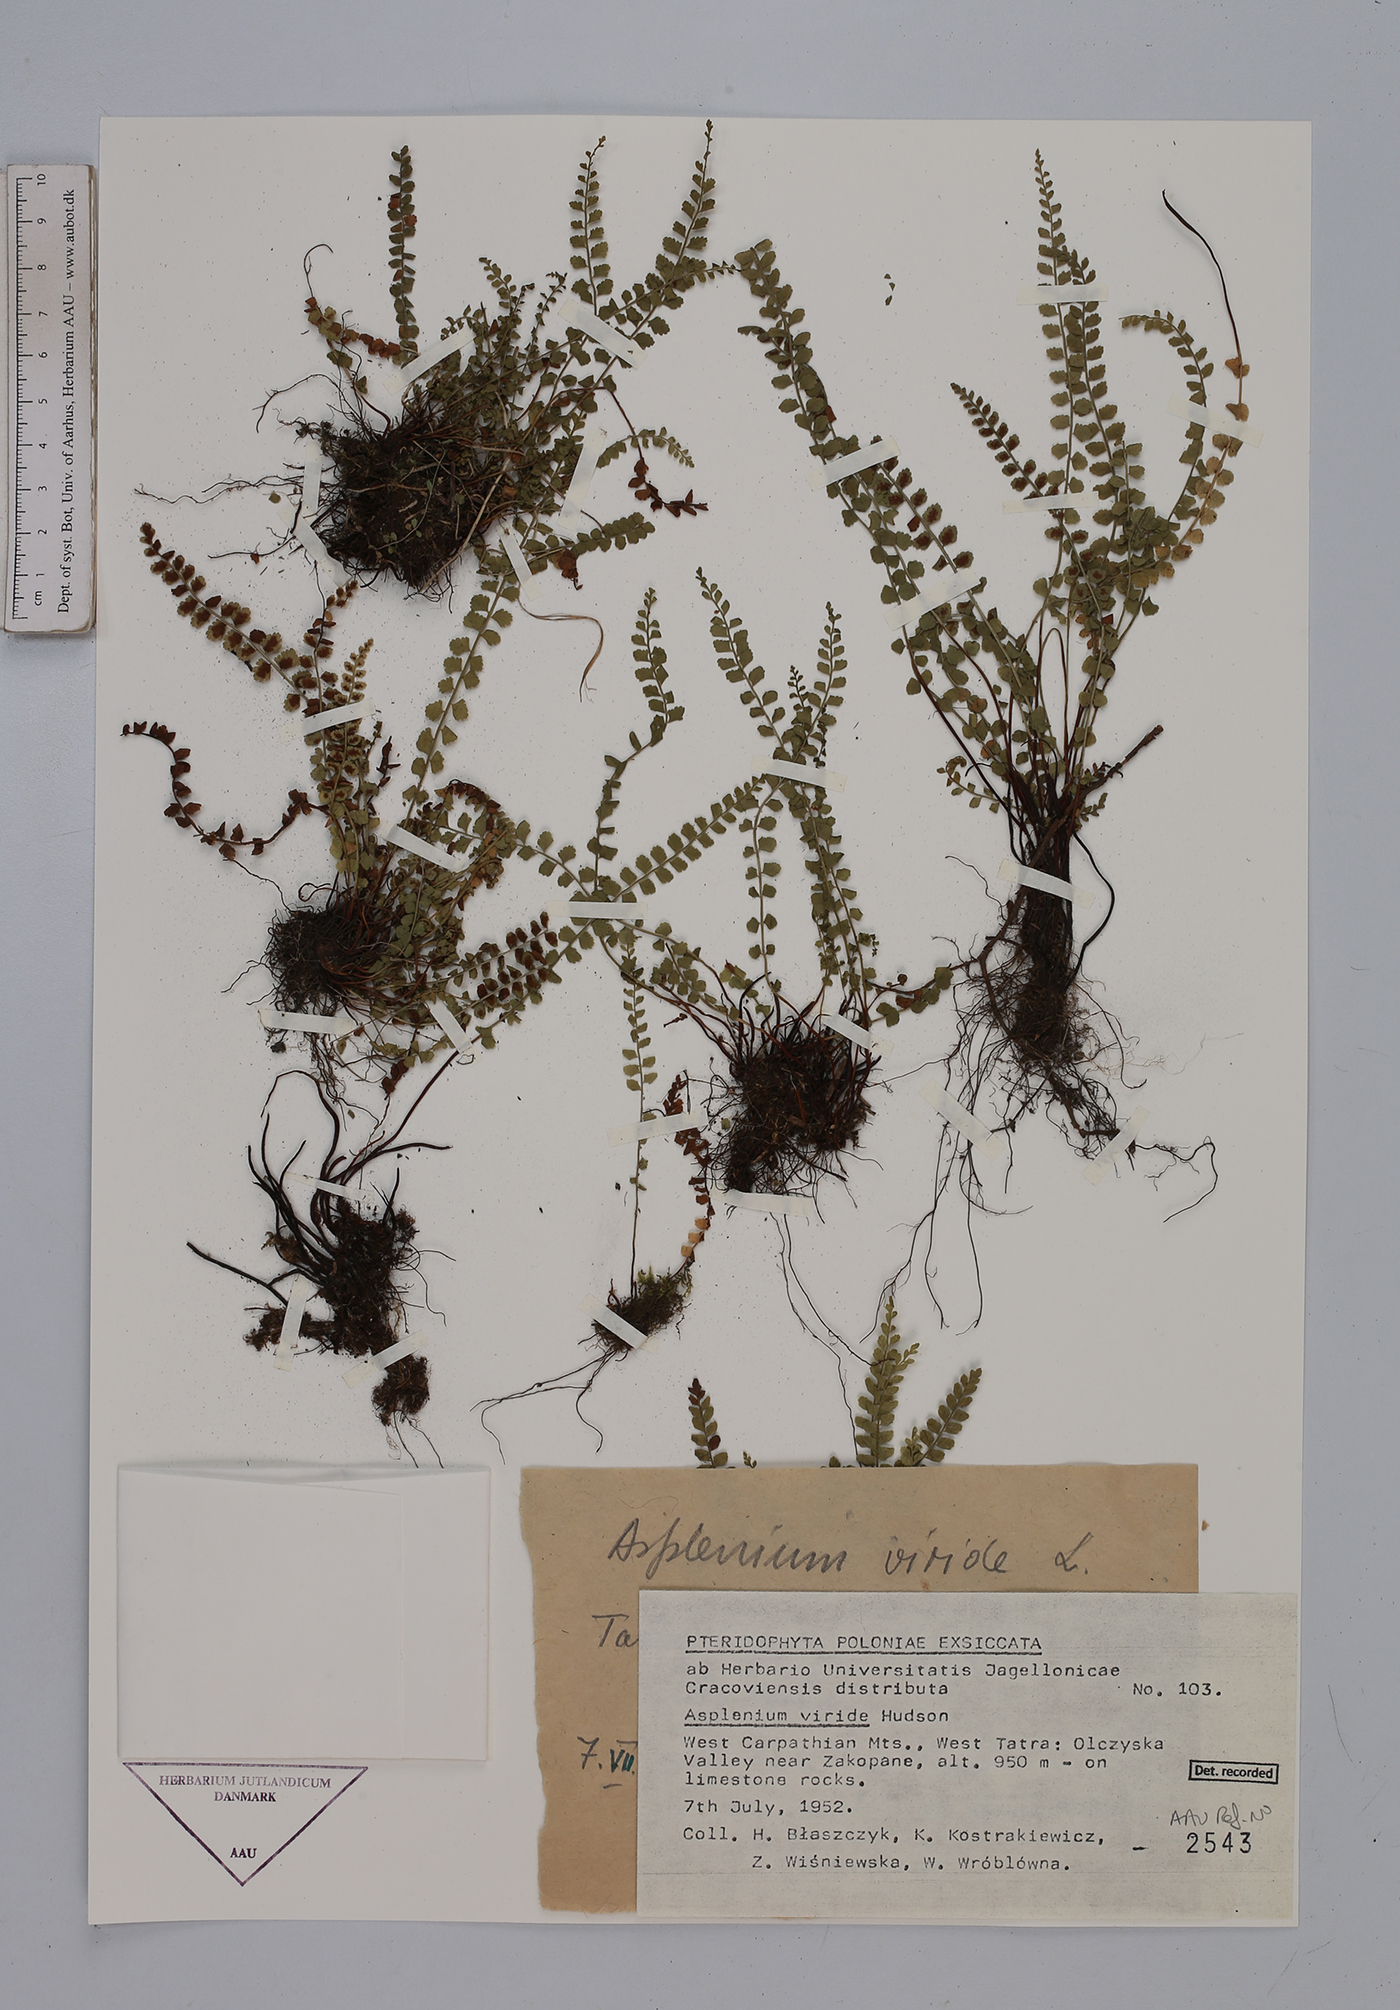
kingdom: Plantae
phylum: Tracheophyta
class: Polypodiopsida
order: Polypodiales
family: Aspleniaceae
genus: Asplenium
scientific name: Asplenium viride
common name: Green spleenwort
